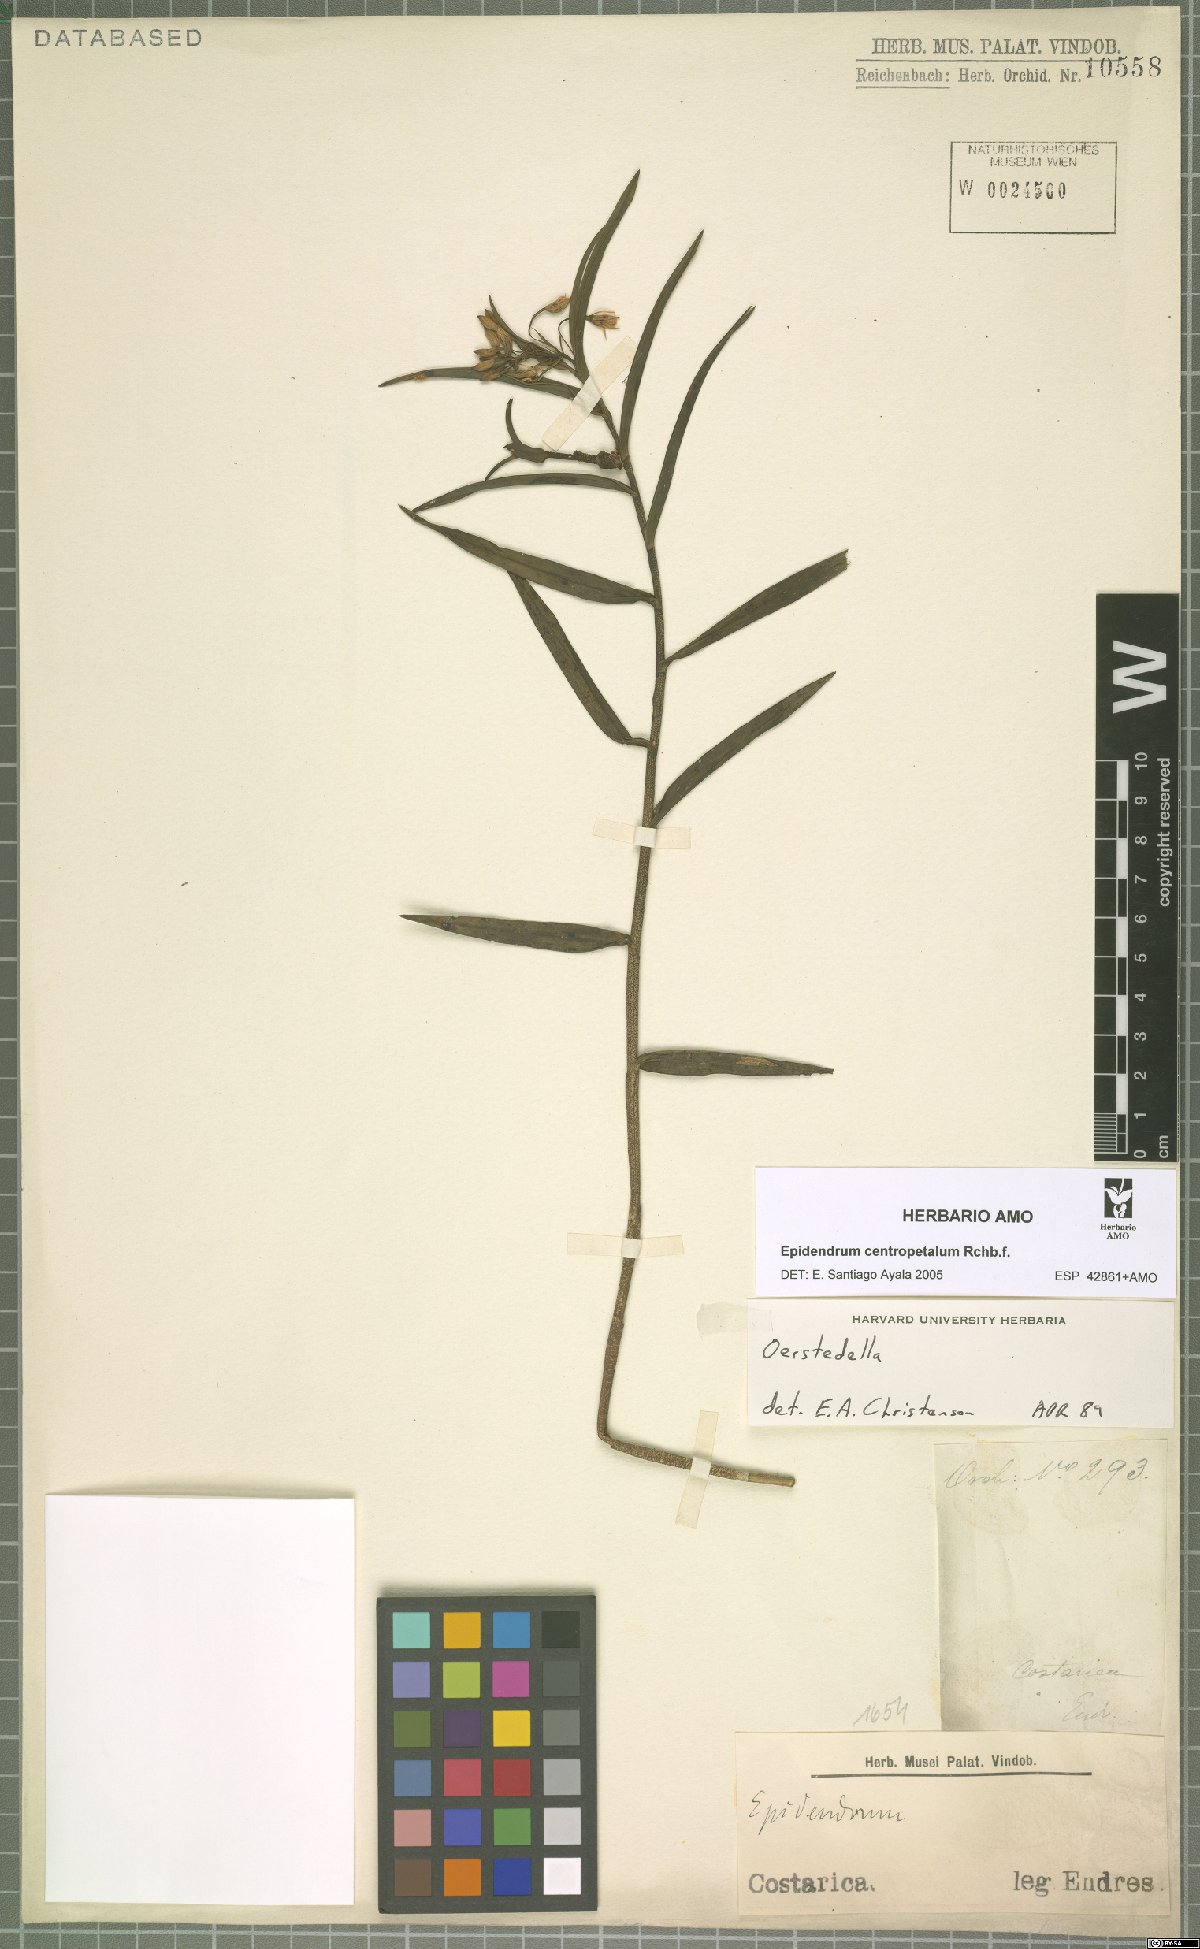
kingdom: Plantae
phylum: Tracheophyta
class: Liliopsida
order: Asparagales
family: Orchidaceae
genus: Epidendrum
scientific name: Epidendrum centropetalum
